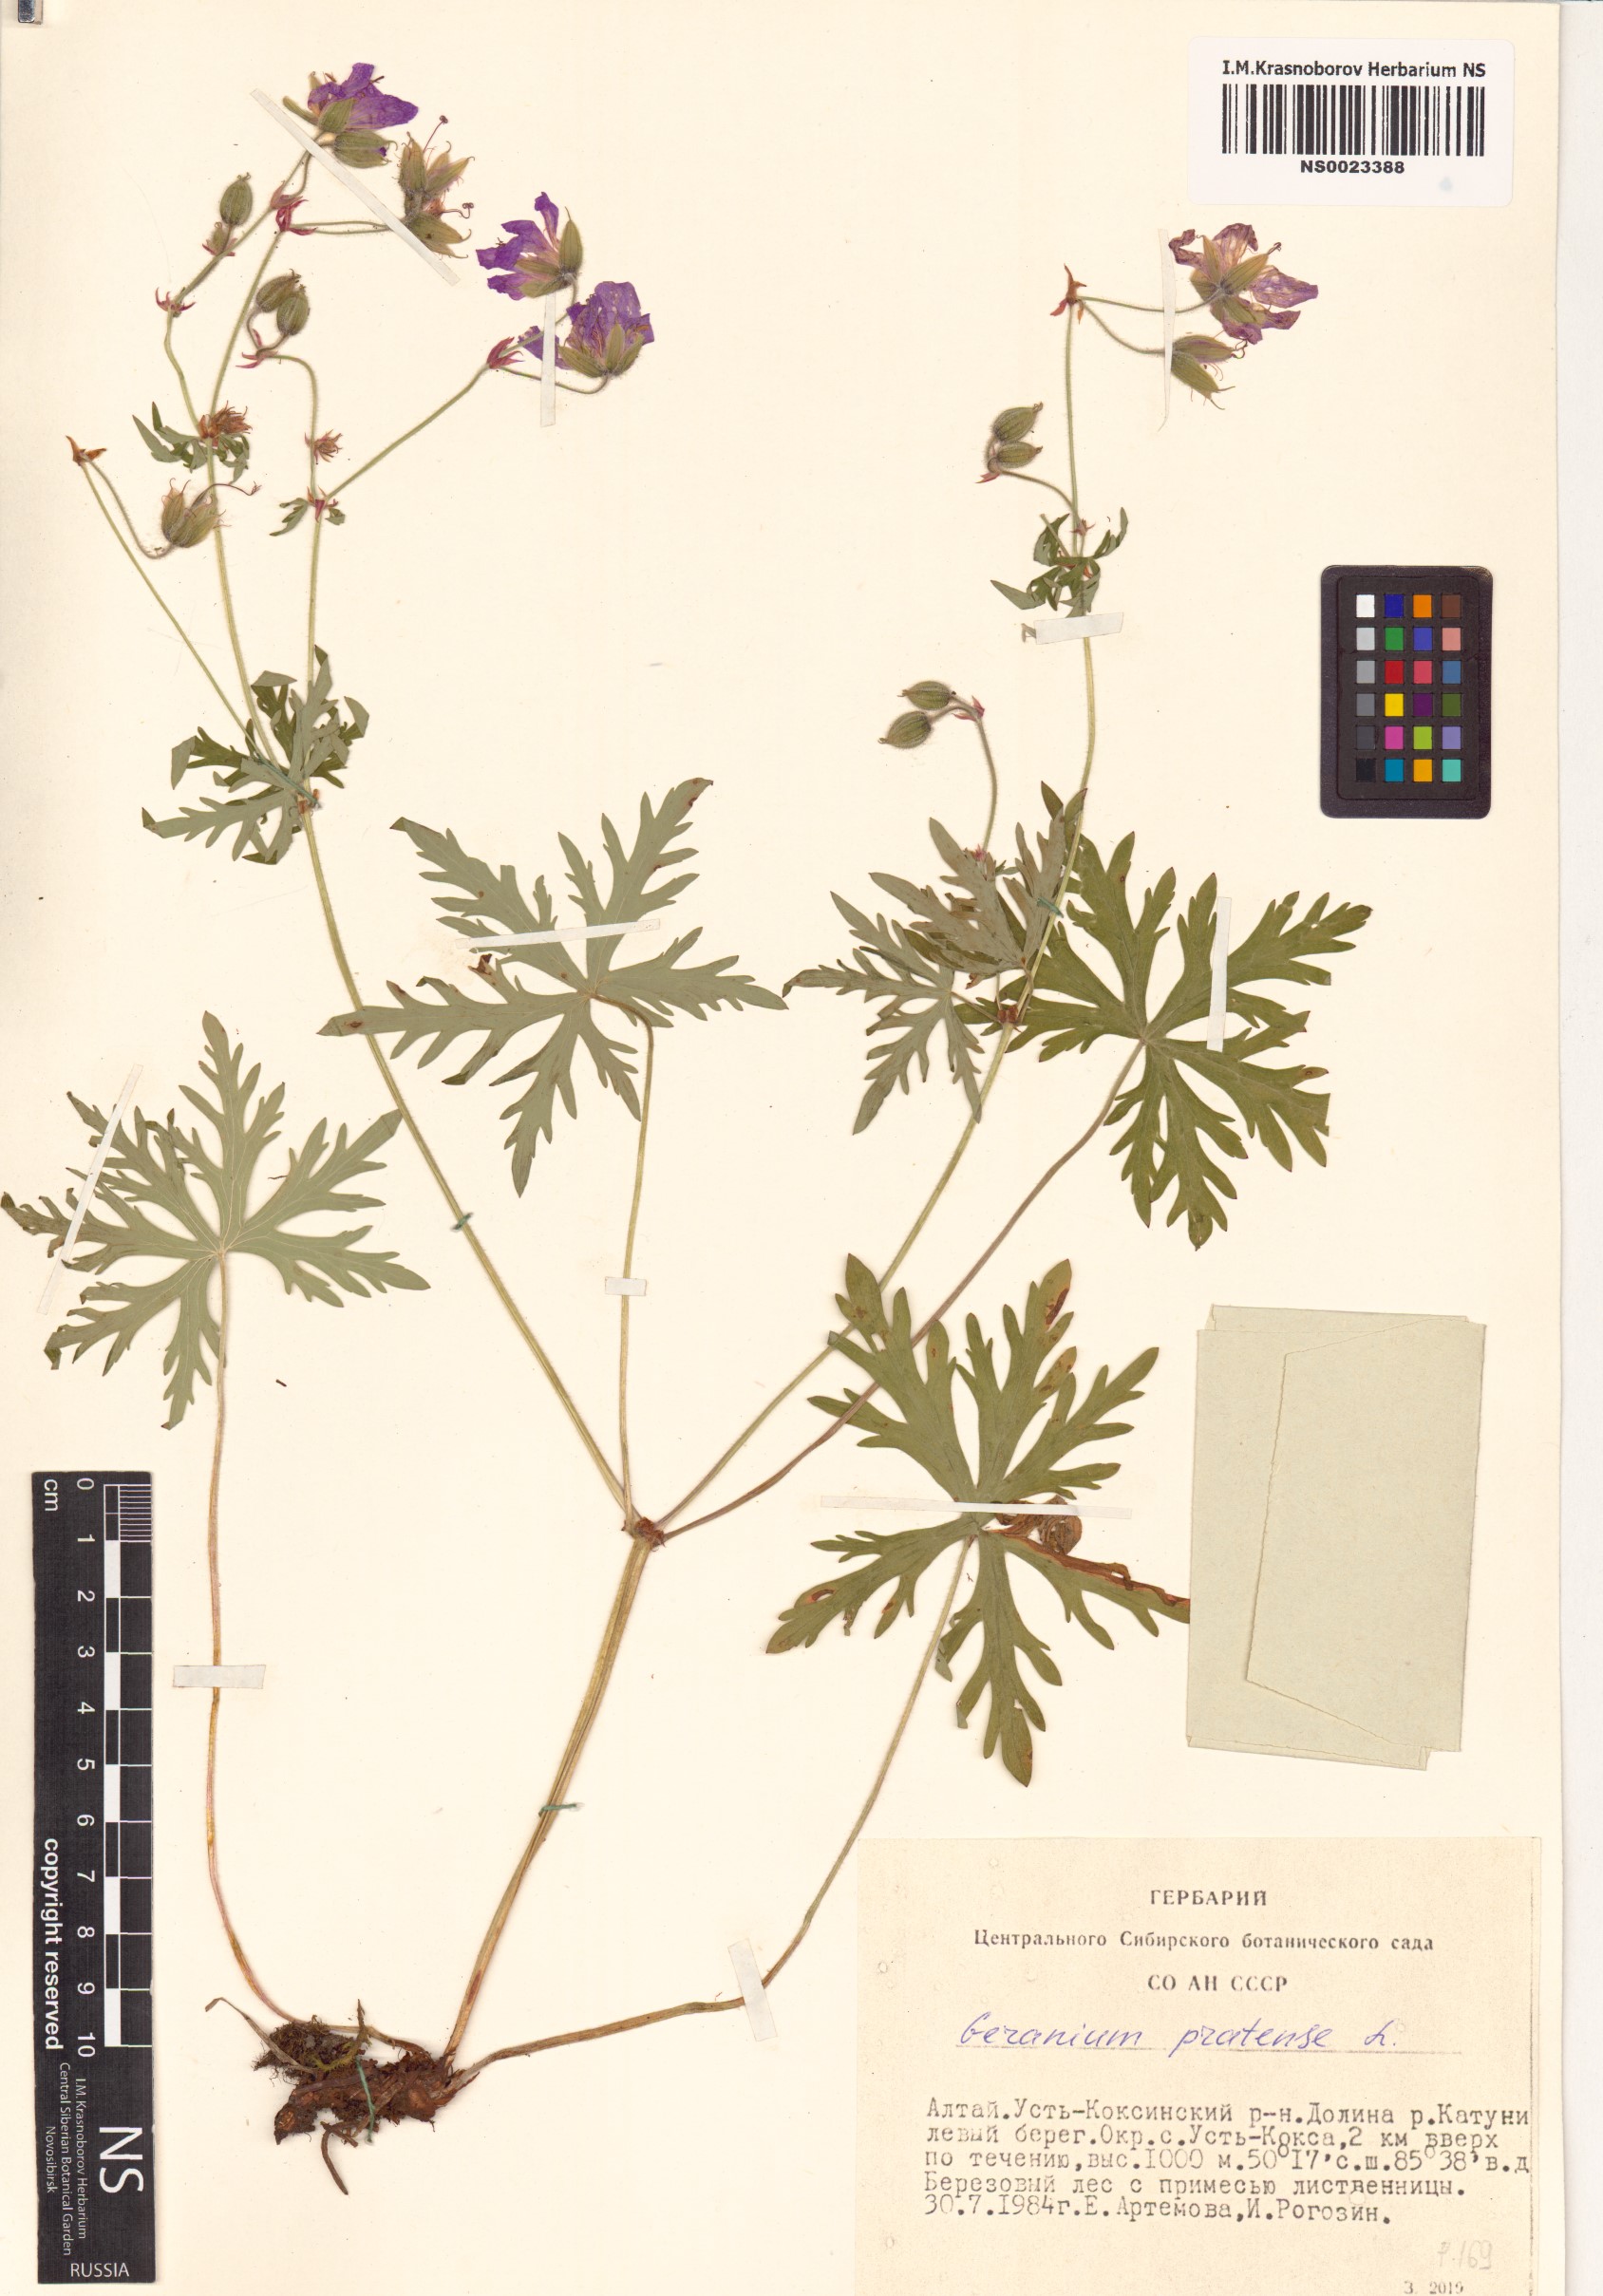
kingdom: Plantae
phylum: Tracheophyta
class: Magnoliopsida
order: Geraniales
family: Geraniaceae
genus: Geranium
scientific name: Geranium pratense
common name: Meadow crane's-bill
